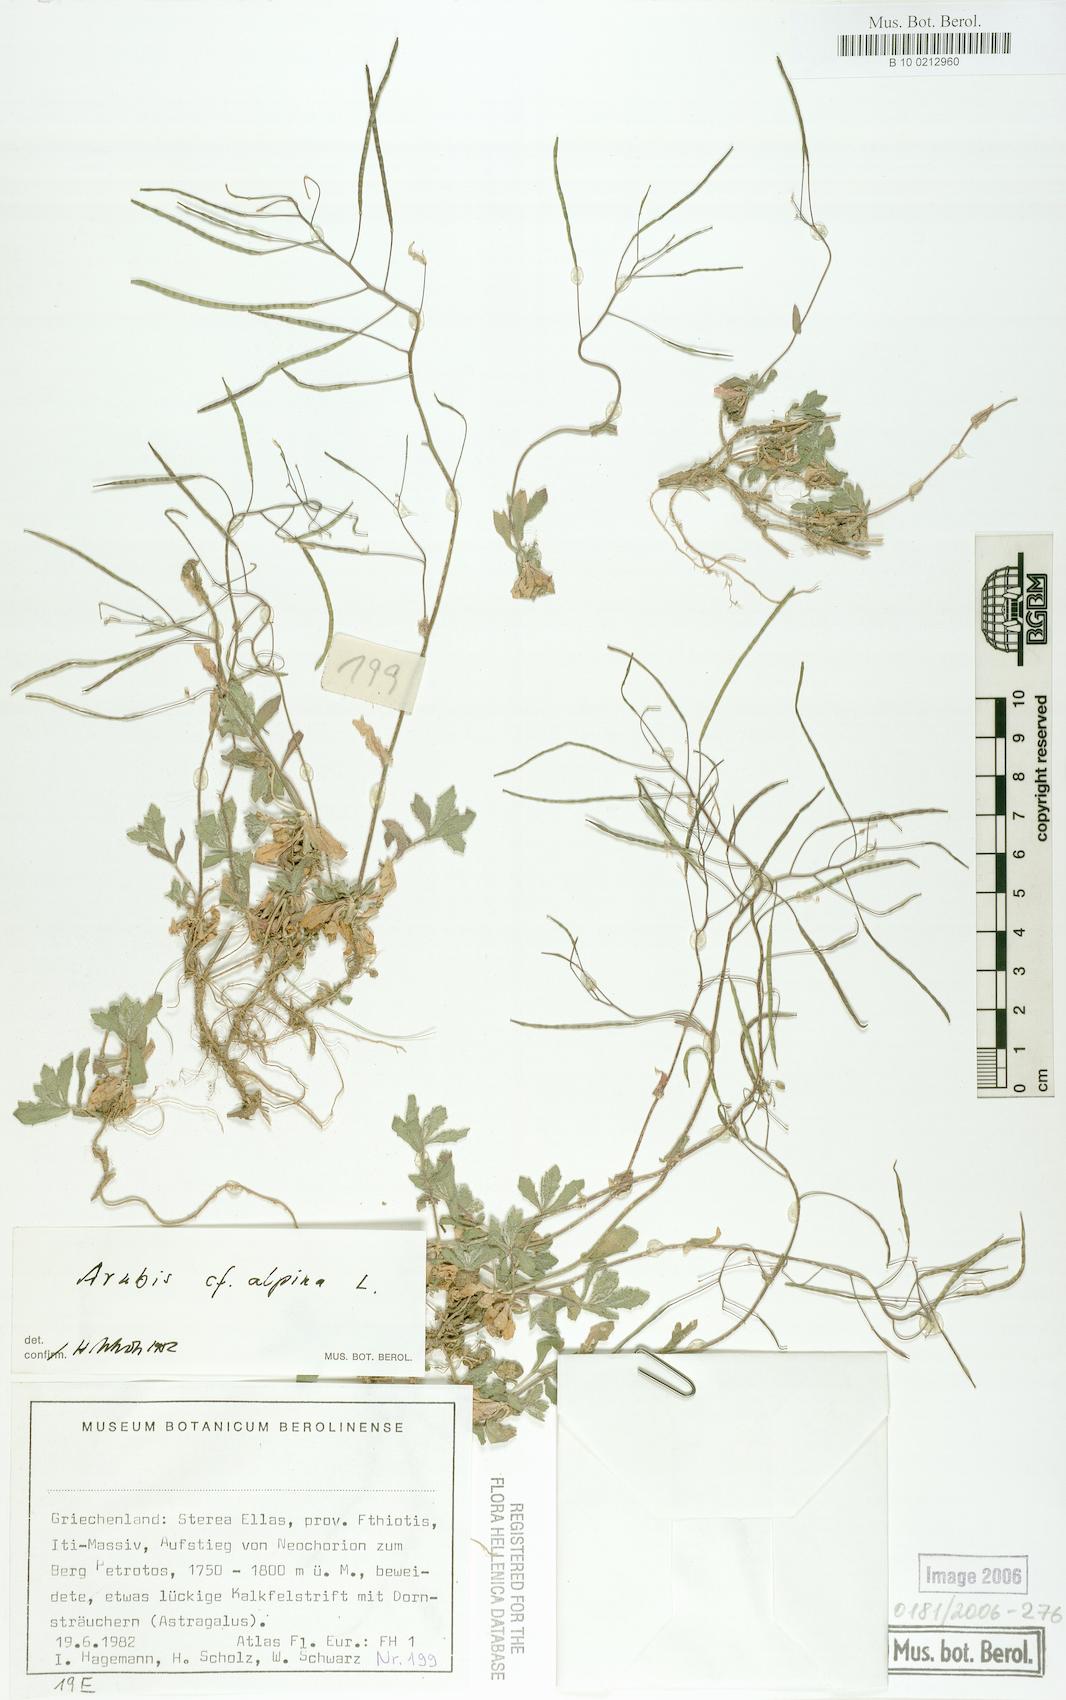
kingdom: Plantae
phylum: Tracheophyta
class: Magnoliopsida
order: Brassicales
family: Brassicaceae
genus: Arabis
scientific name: Arabis alpina
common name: Alpine rock-cress
